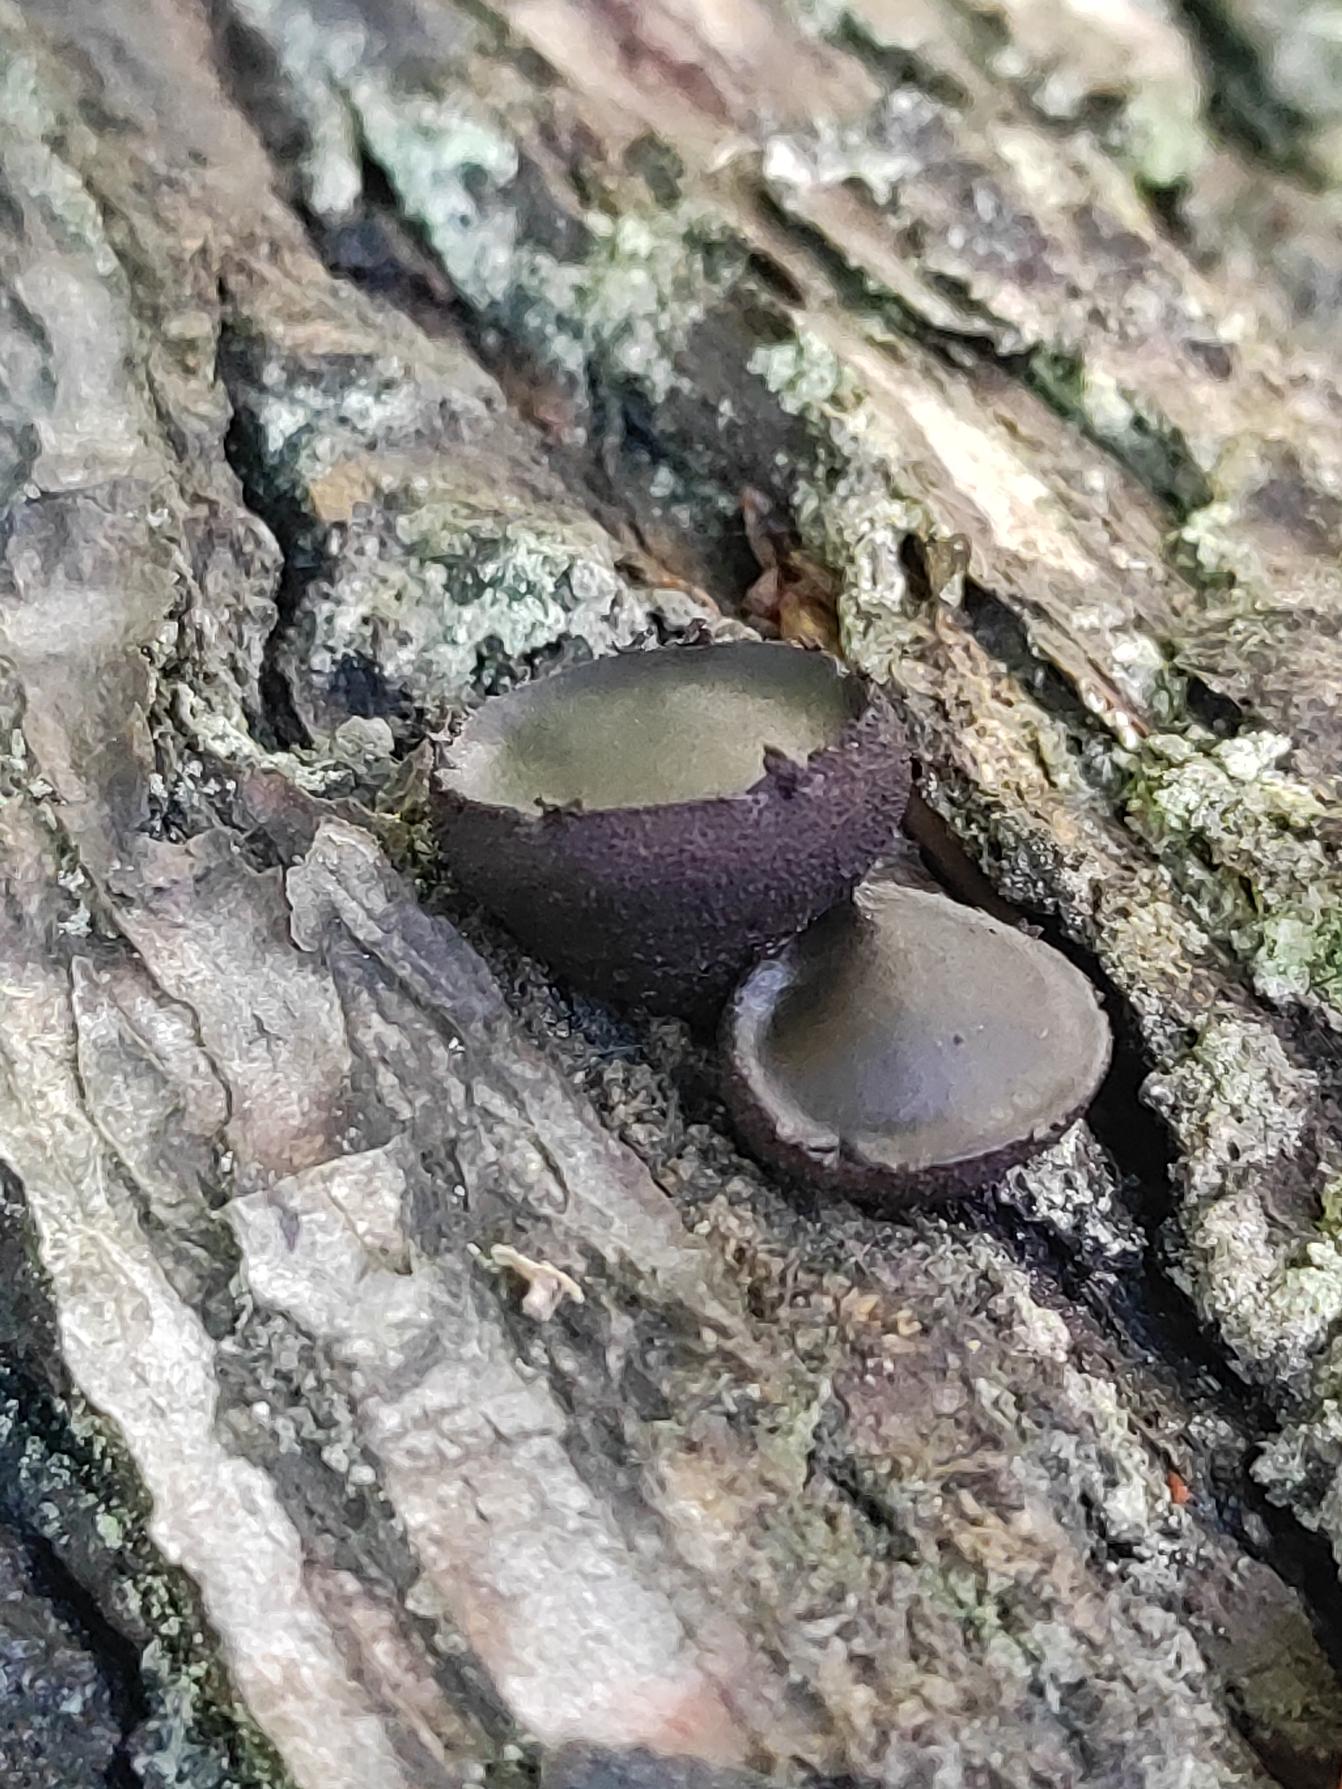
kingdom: Fungi
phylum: Ascomycota
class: Leotiomycetes
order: Phacidiales
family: Phacidiaceae
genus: Bulgaria
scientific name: Bulgaria inquinans
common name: Afsmittende topsvamp
